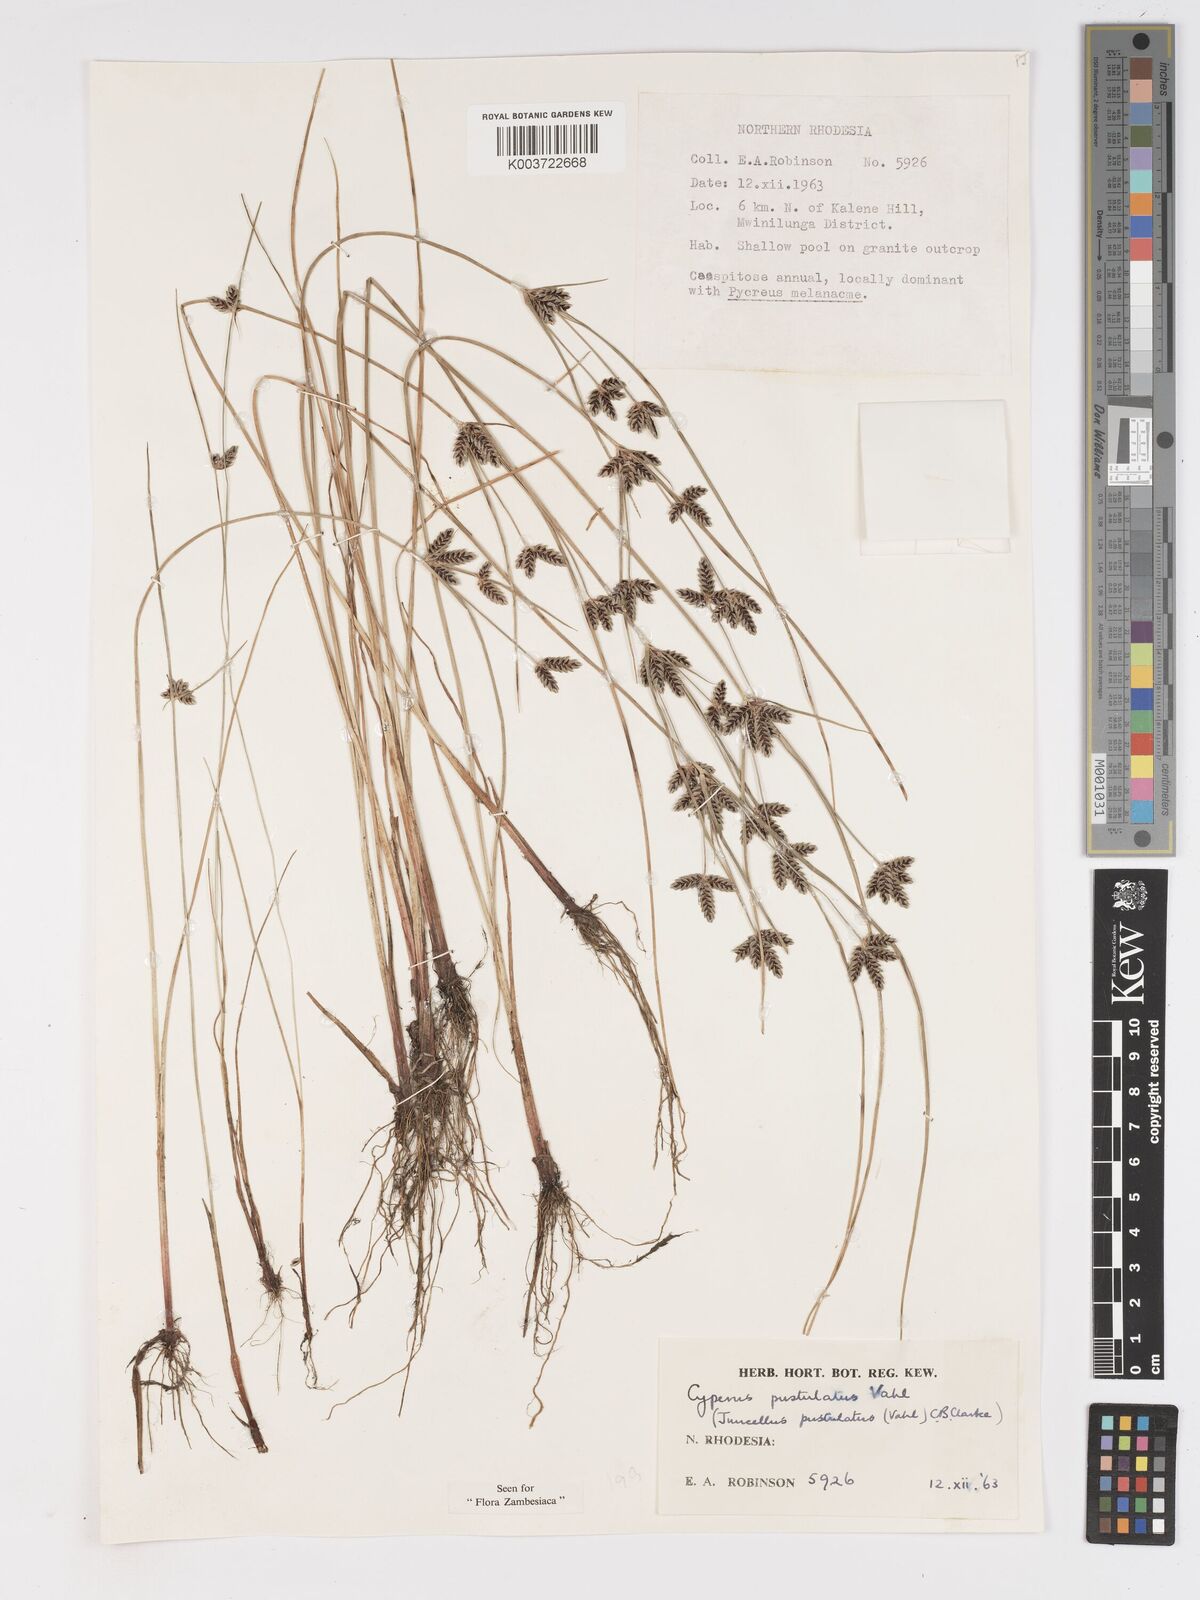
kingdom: Plantae
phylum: Tracheophyta
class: Liliopsida
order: Poales
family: Cyperaceae
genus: Cyperus
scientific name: Cyperus pustulatus
